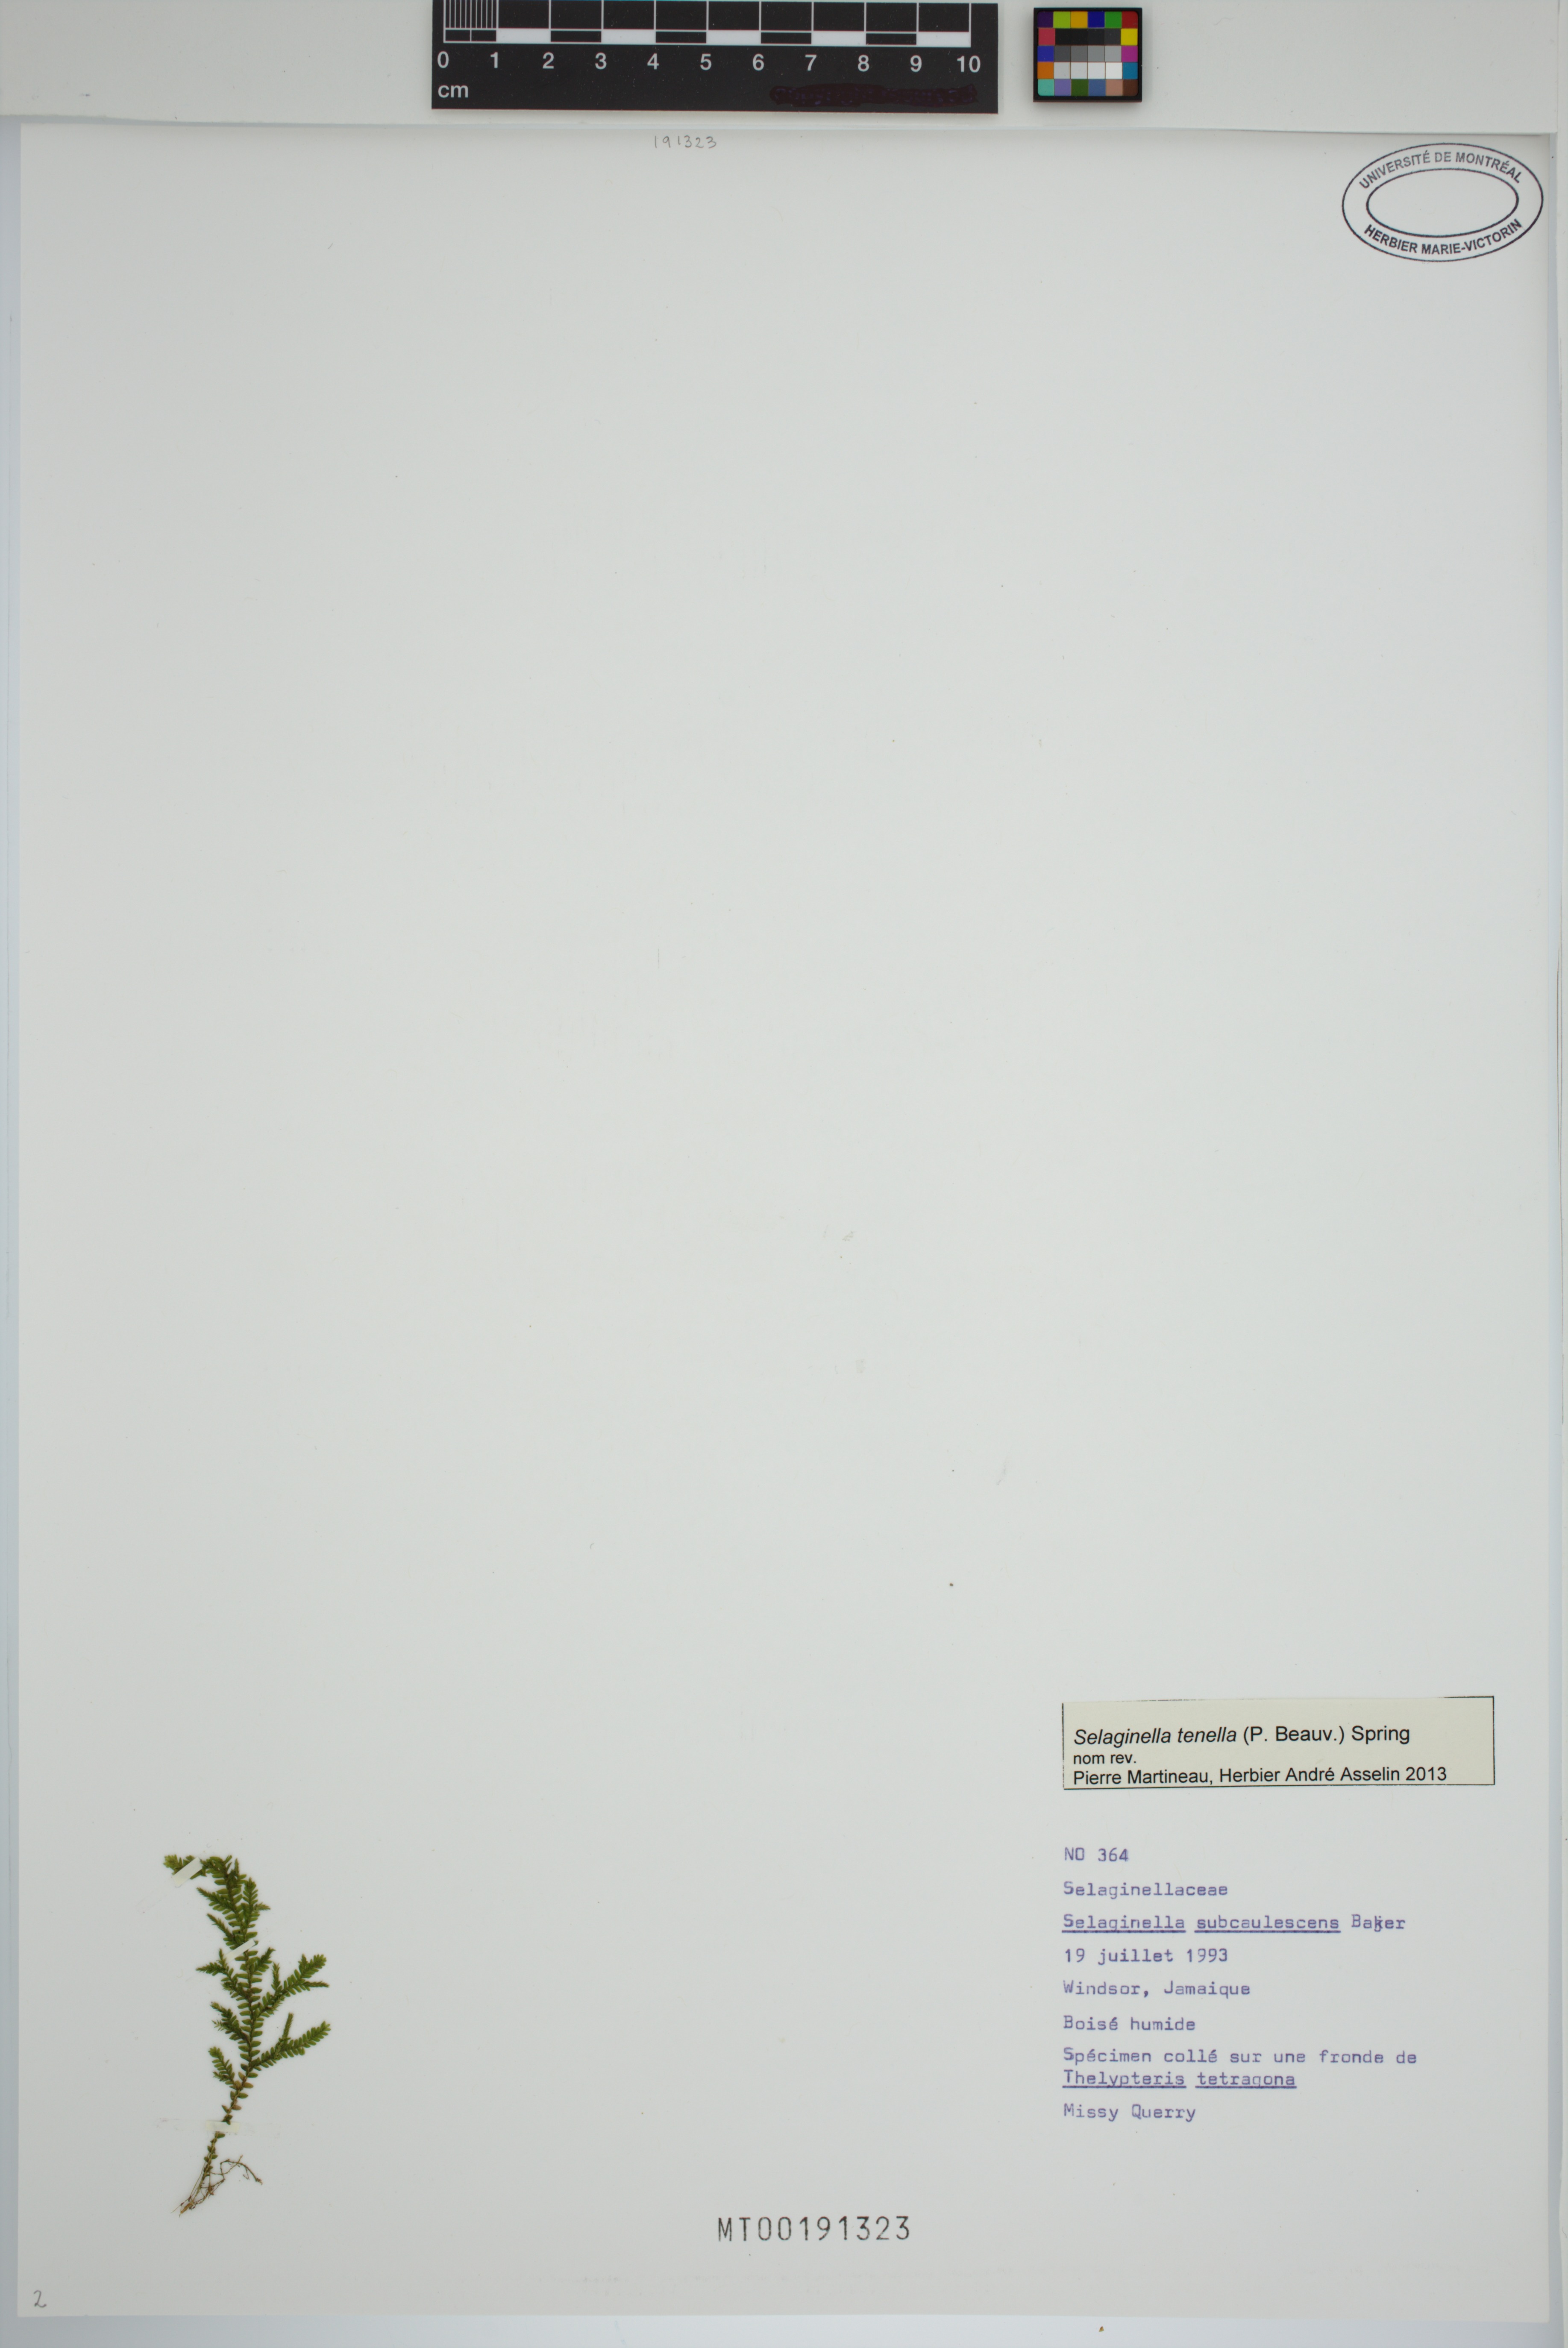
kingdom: Plantae
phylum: Tracheophyta
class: Lycopodiopsida
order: Selaginellales
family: Selaginellaceae
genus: Selaginella
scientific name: Selaginella tenella
